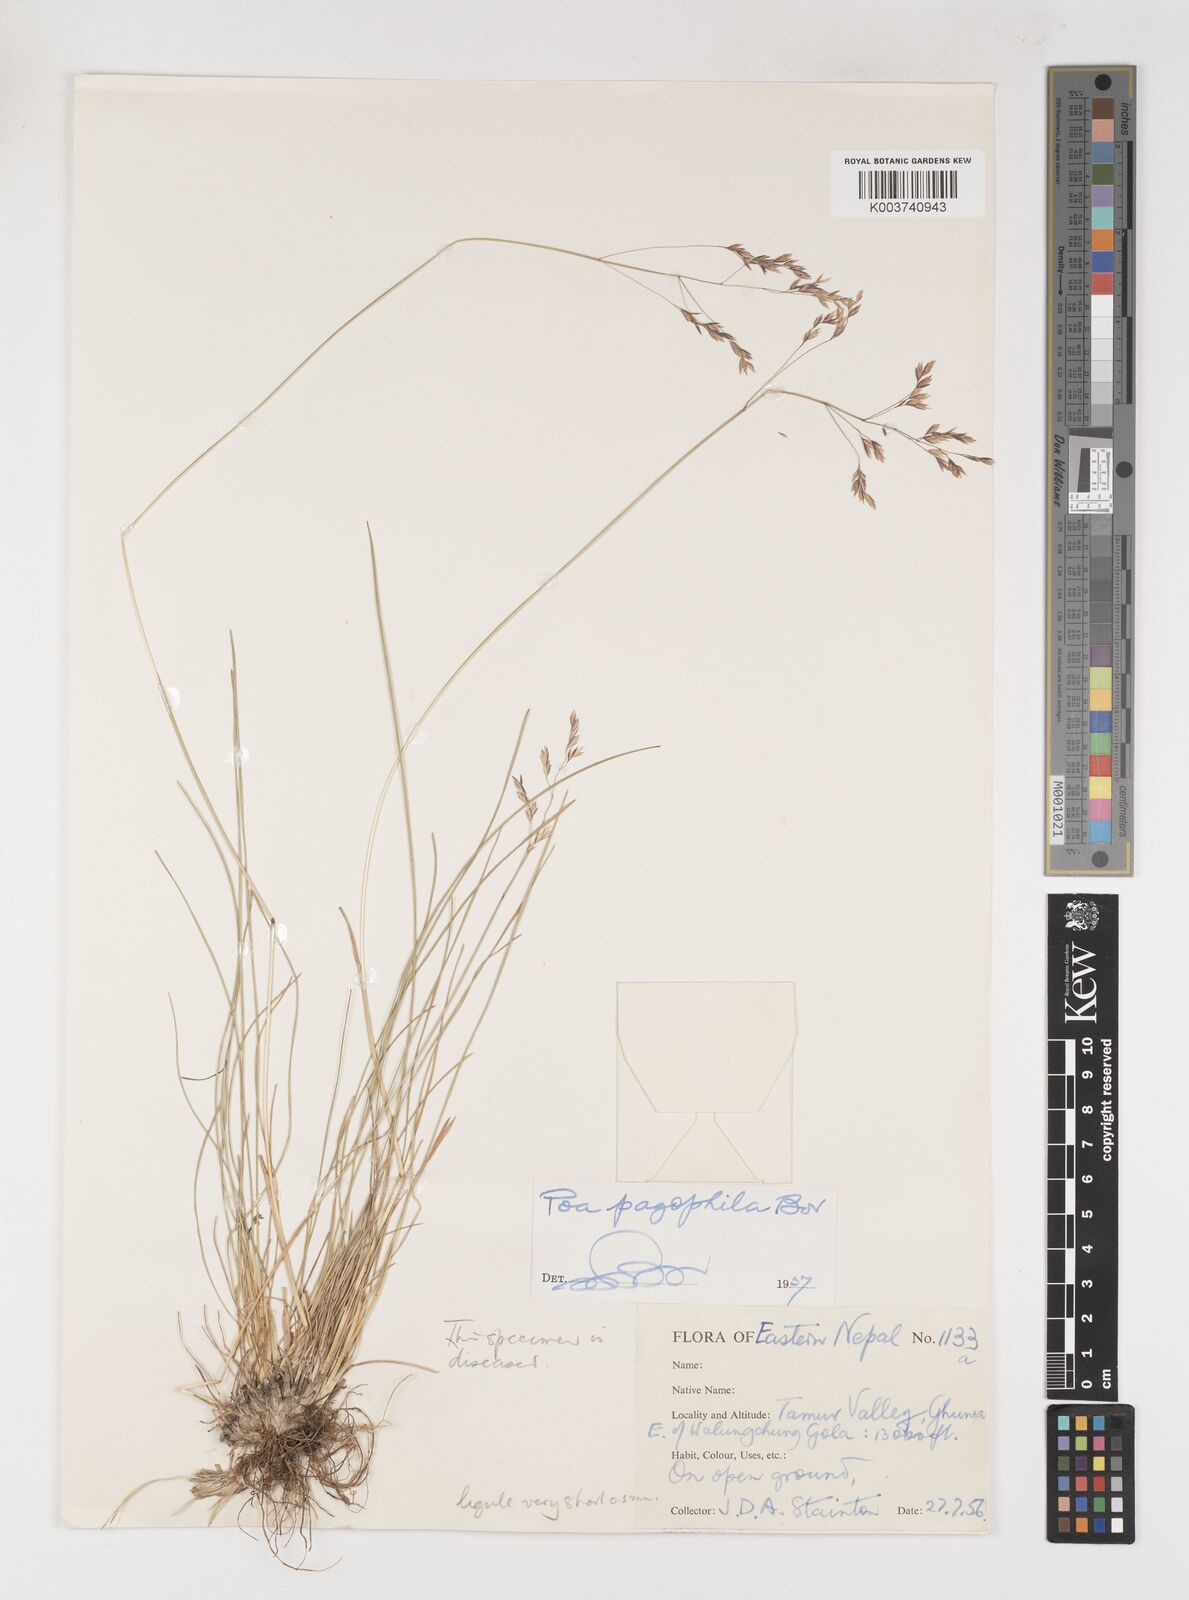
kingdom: Plantae
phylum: Tracheophyta
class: Liliopsida
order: Poales
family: Poaceae
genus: Poa
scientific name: Poa pagophila
